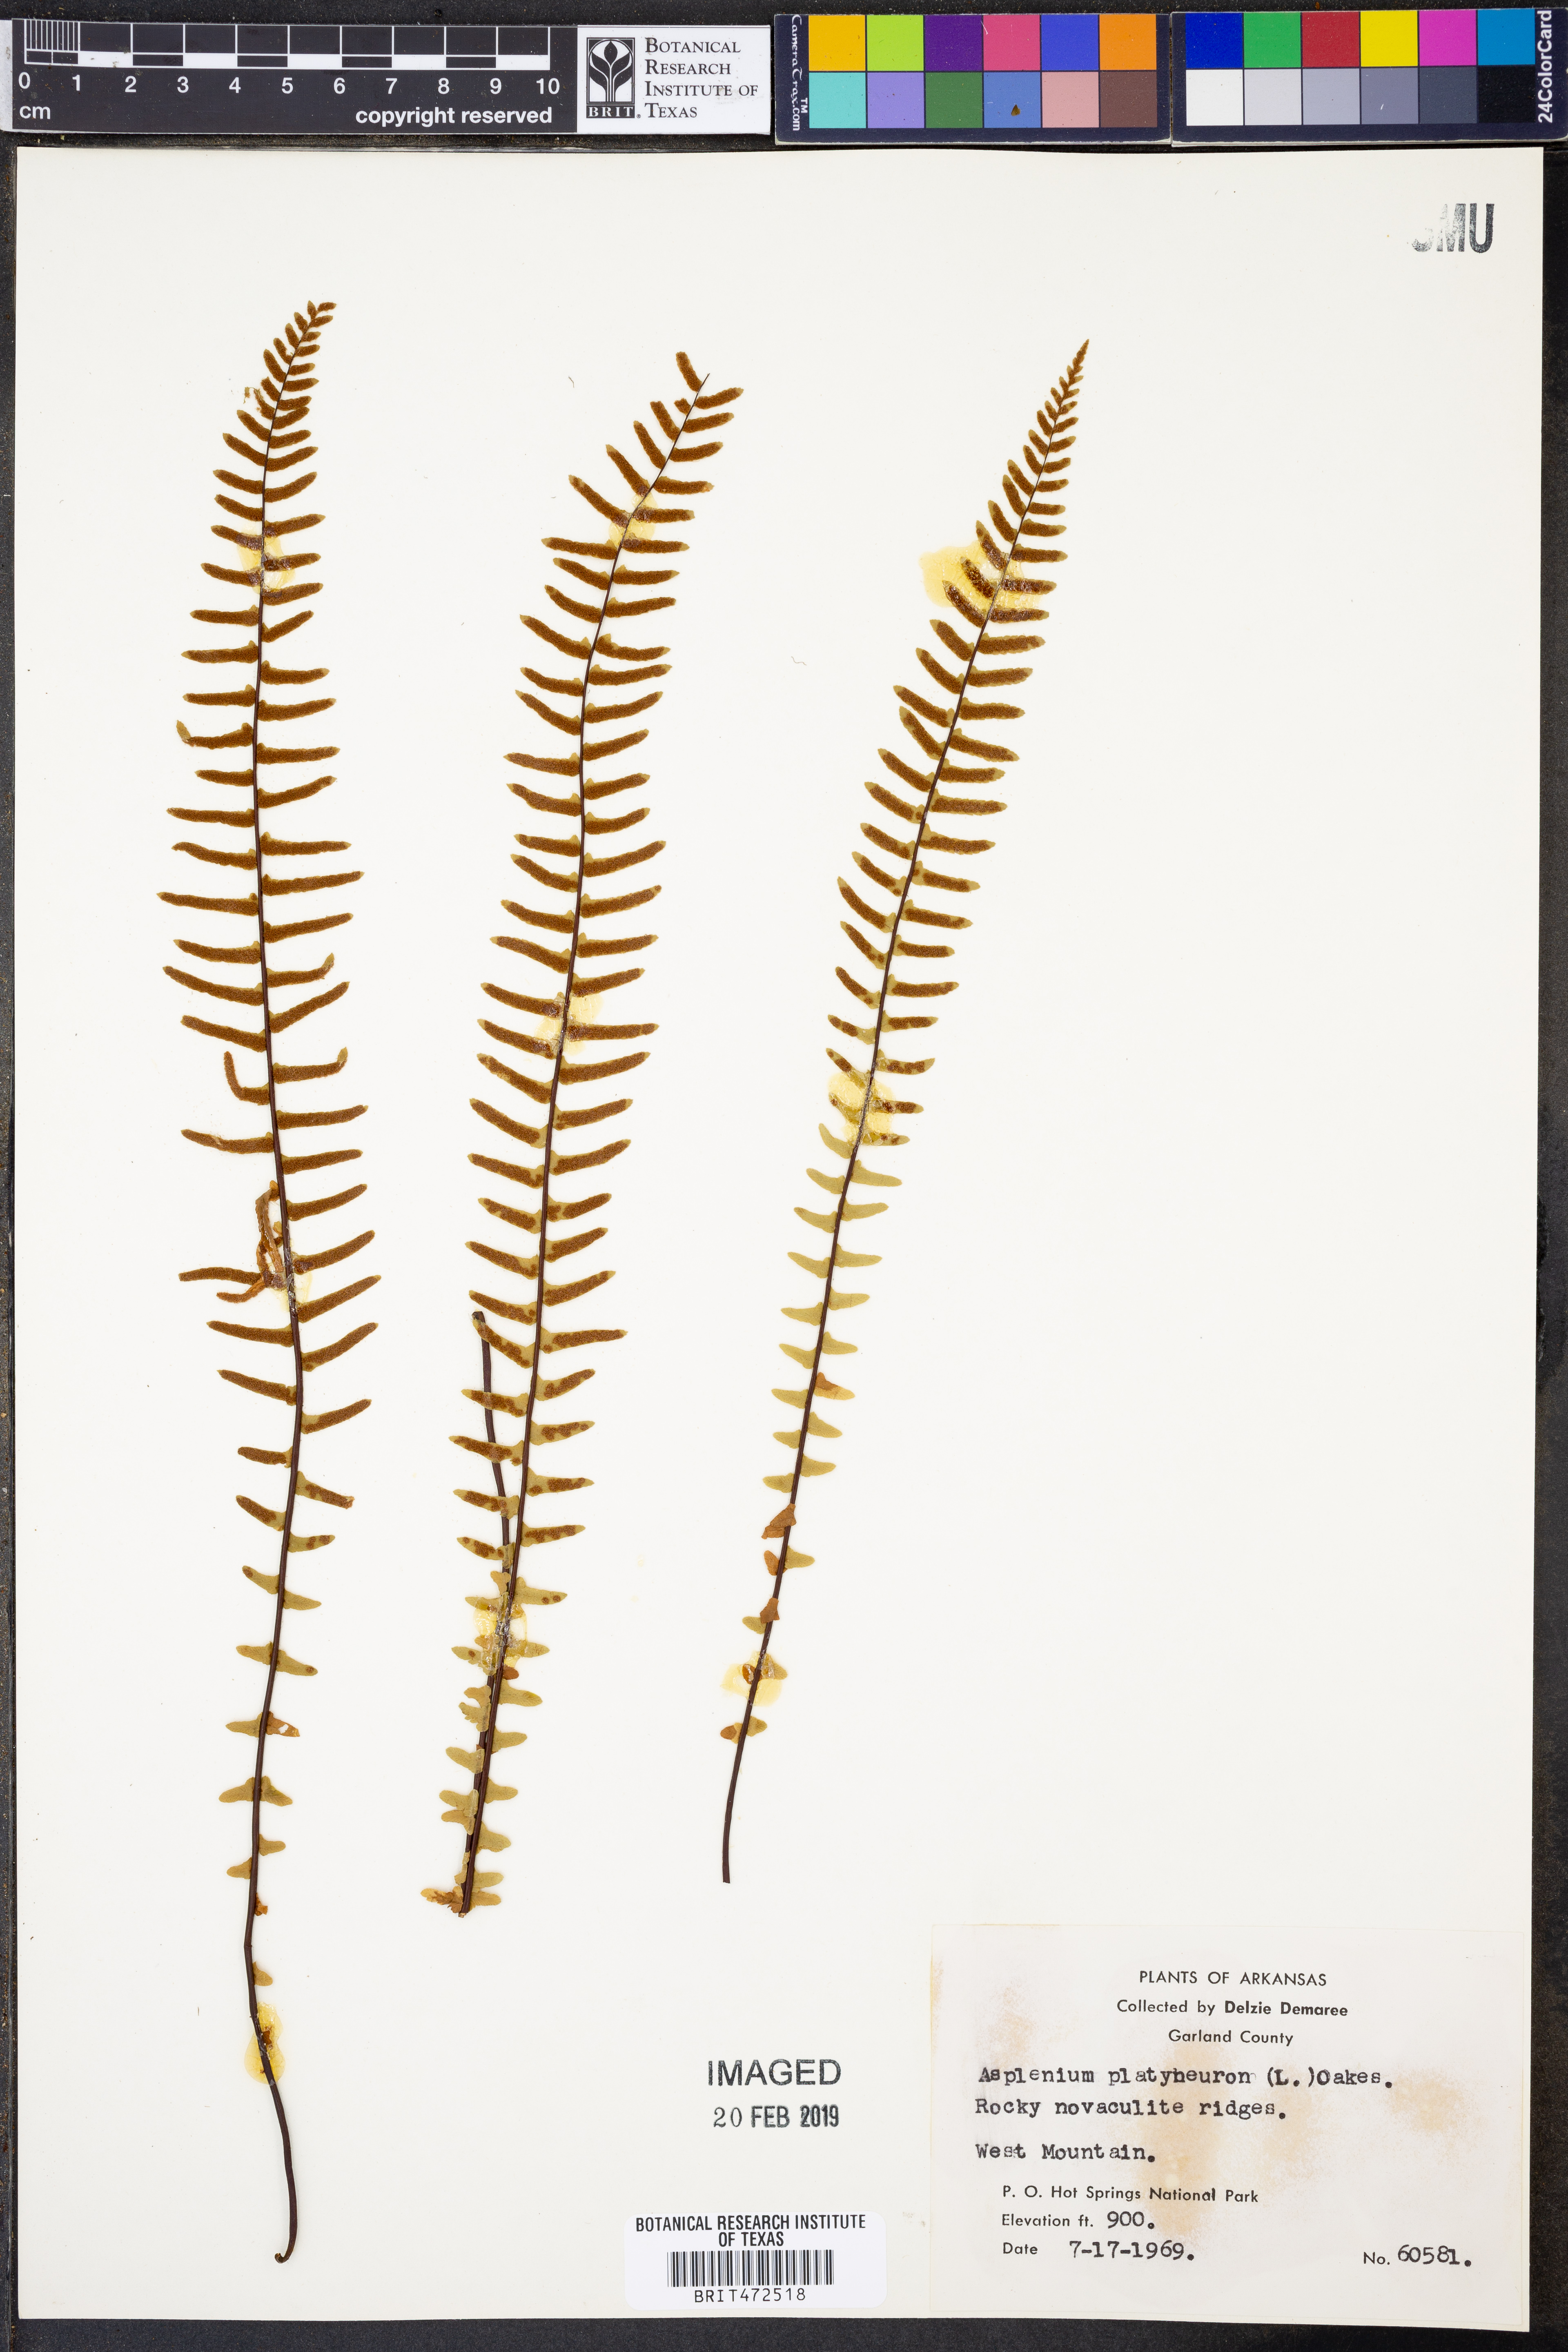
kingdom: Plantae
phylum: Tracheophyta
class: Polypodiopsida
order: Polypodiales
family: Aspleniaceae
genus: Asplenium
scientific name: Asplenium platyneuron
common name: Ebony spleenwort
